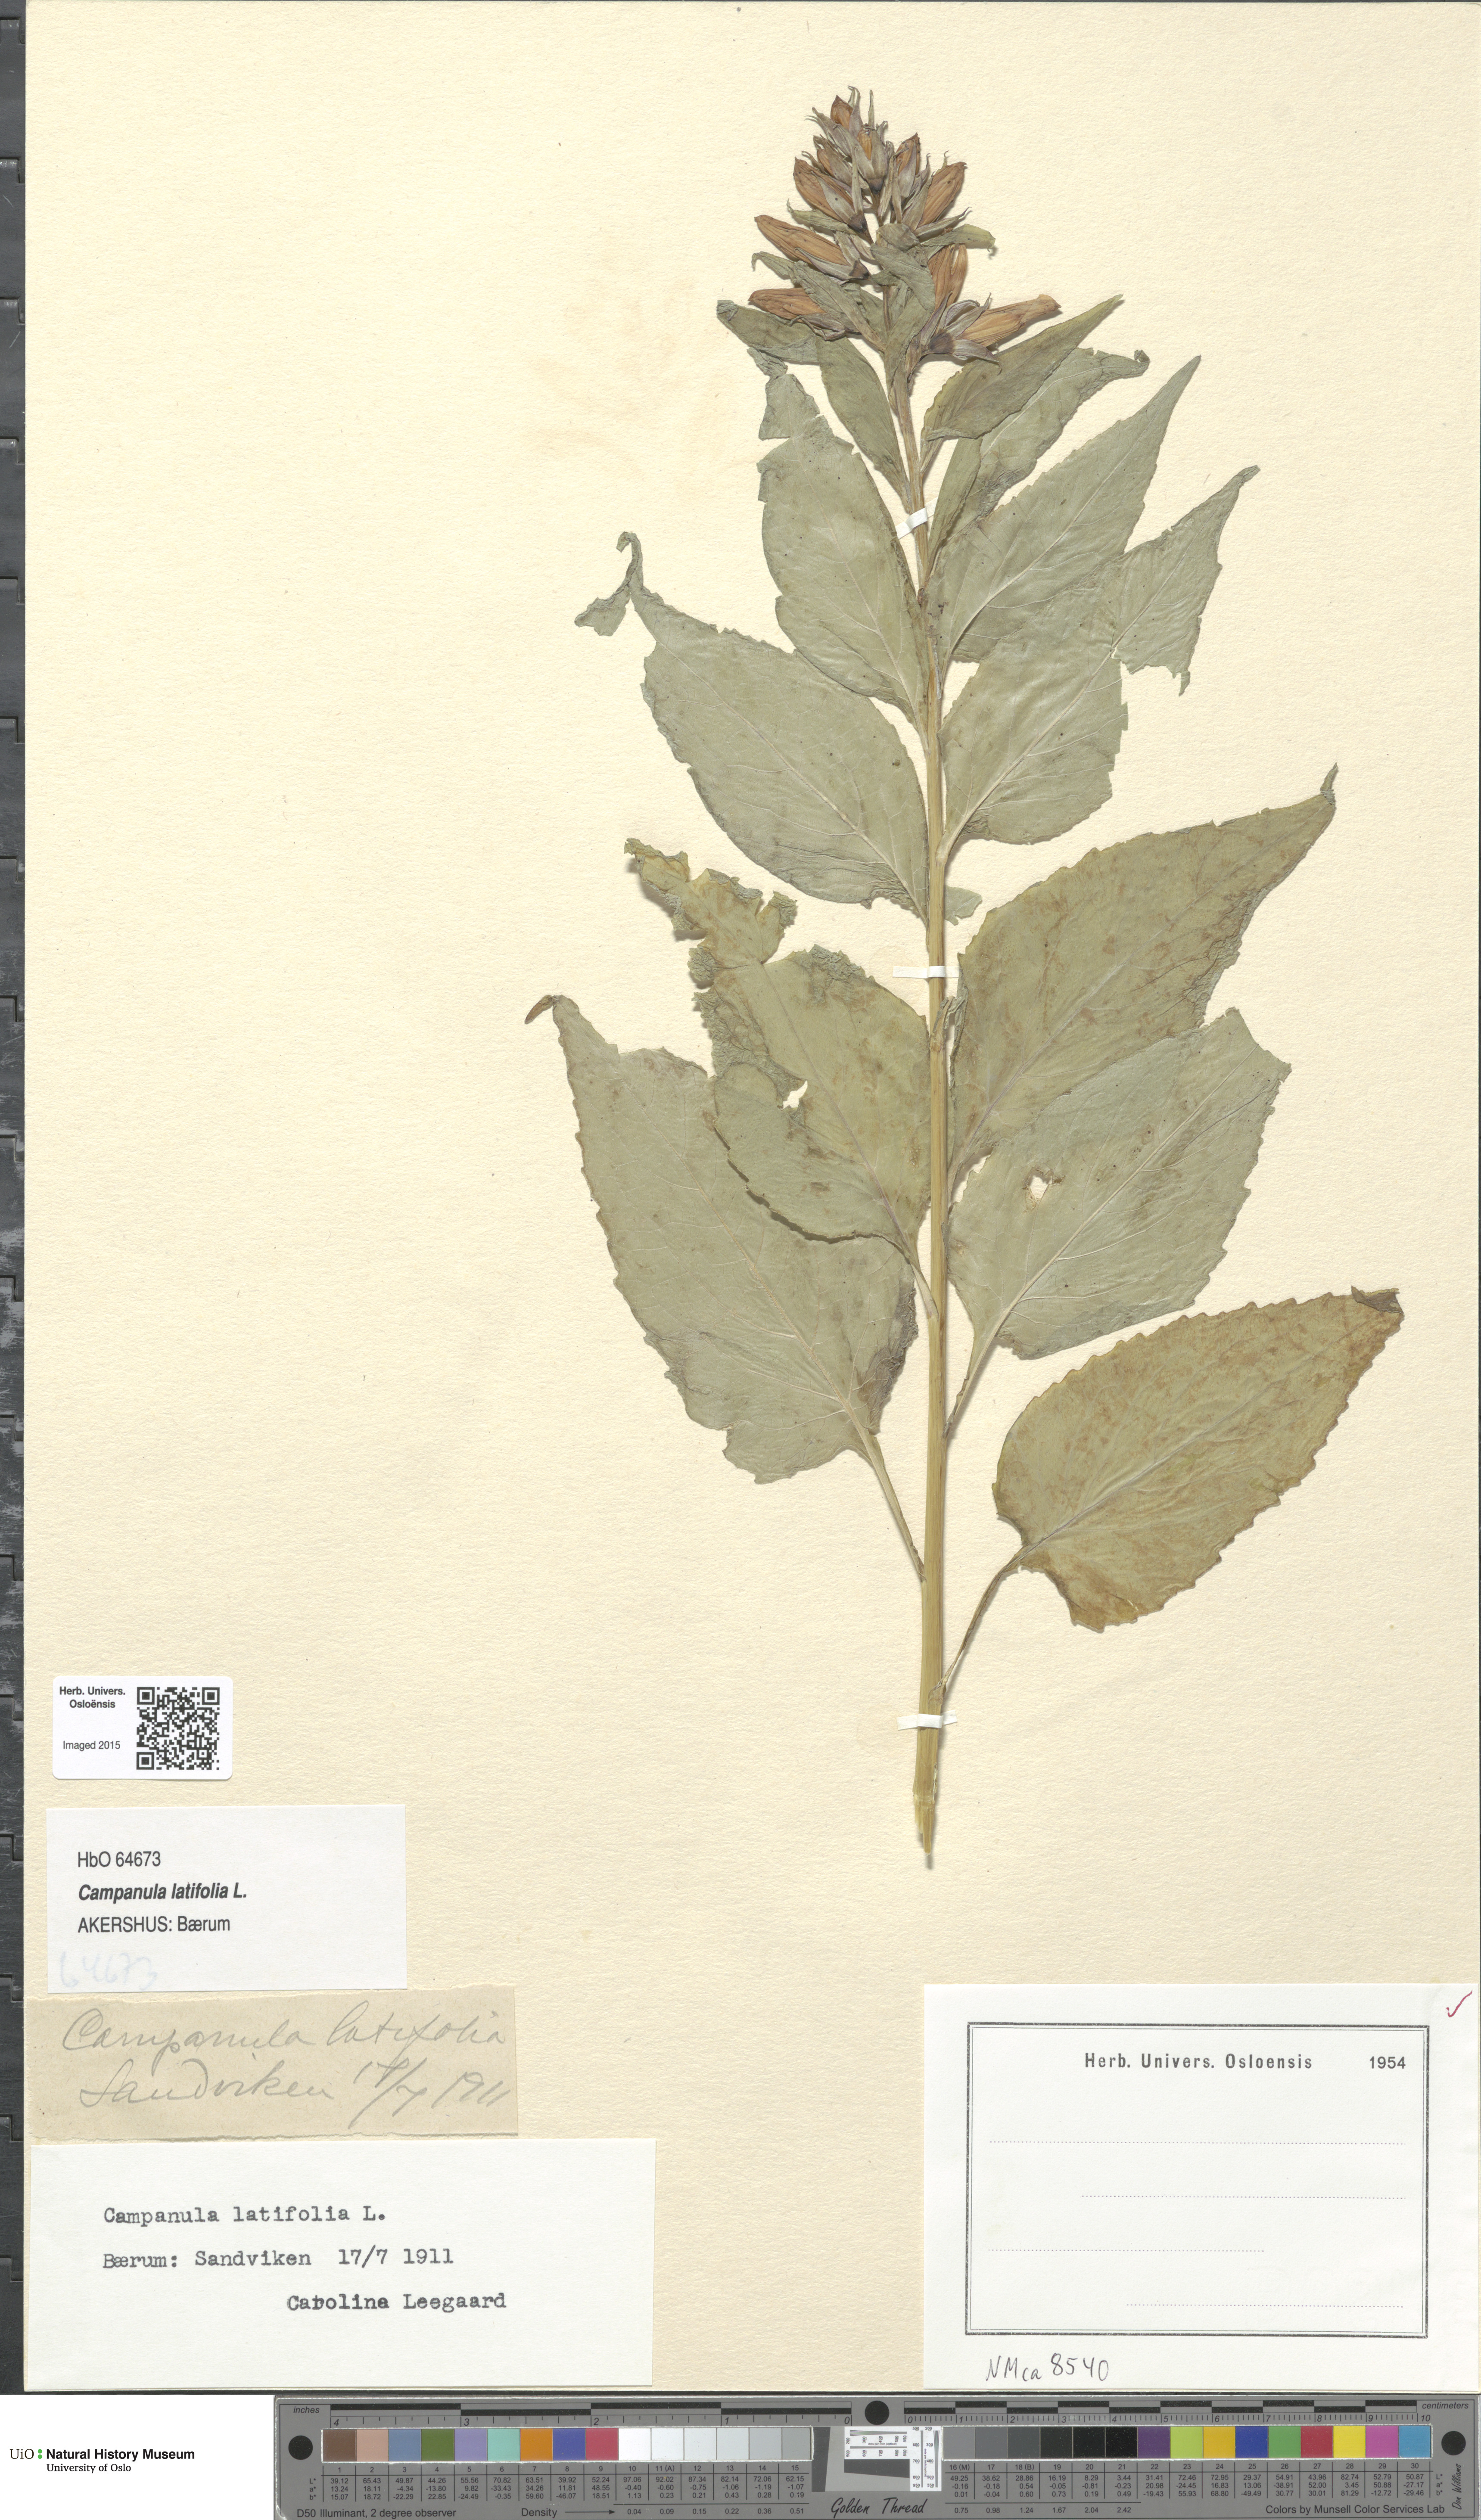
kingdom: Plantae
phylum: Tracheophyta
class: Magnoliopsida
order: Asterales
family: Campanulaceae
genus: Campanula
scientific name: Campanula latifolia
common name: Giant bellflower
